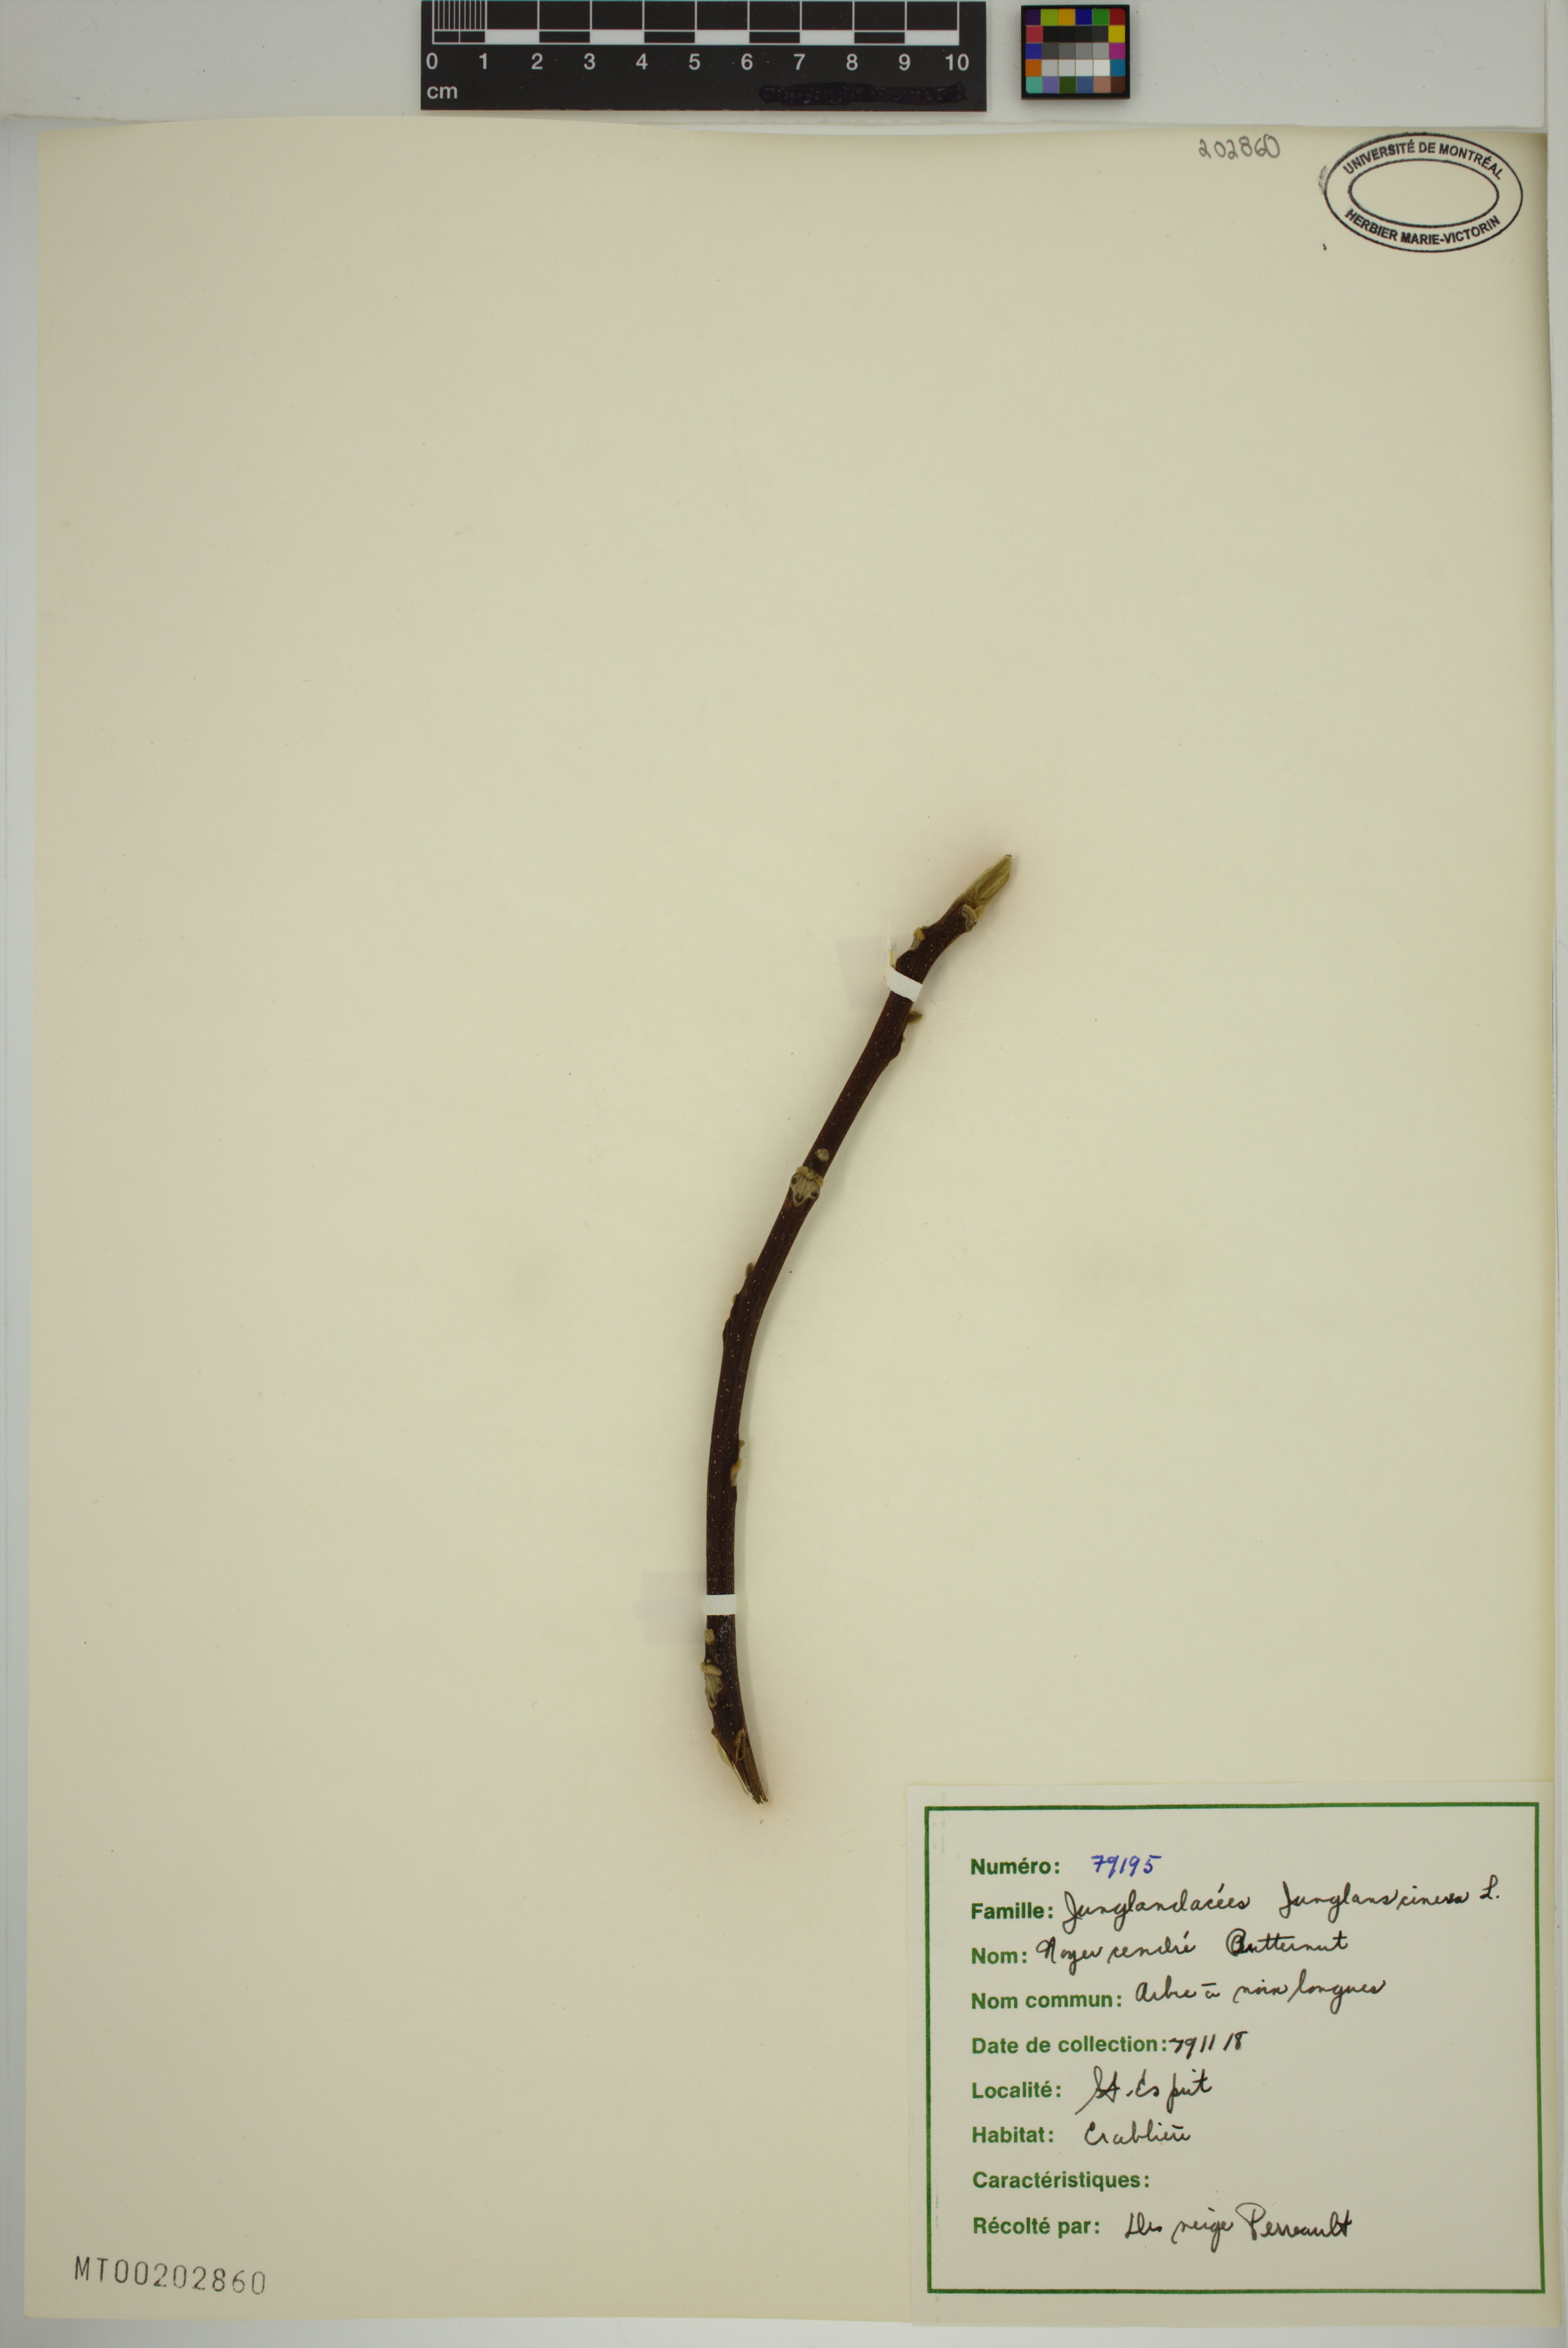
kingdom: Plantae
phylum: Tracheophyta
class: Magnoliopsida
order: Fagales
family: Juglandaceae
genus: Juglans
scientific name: Juglans cinerea
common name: Butternut
